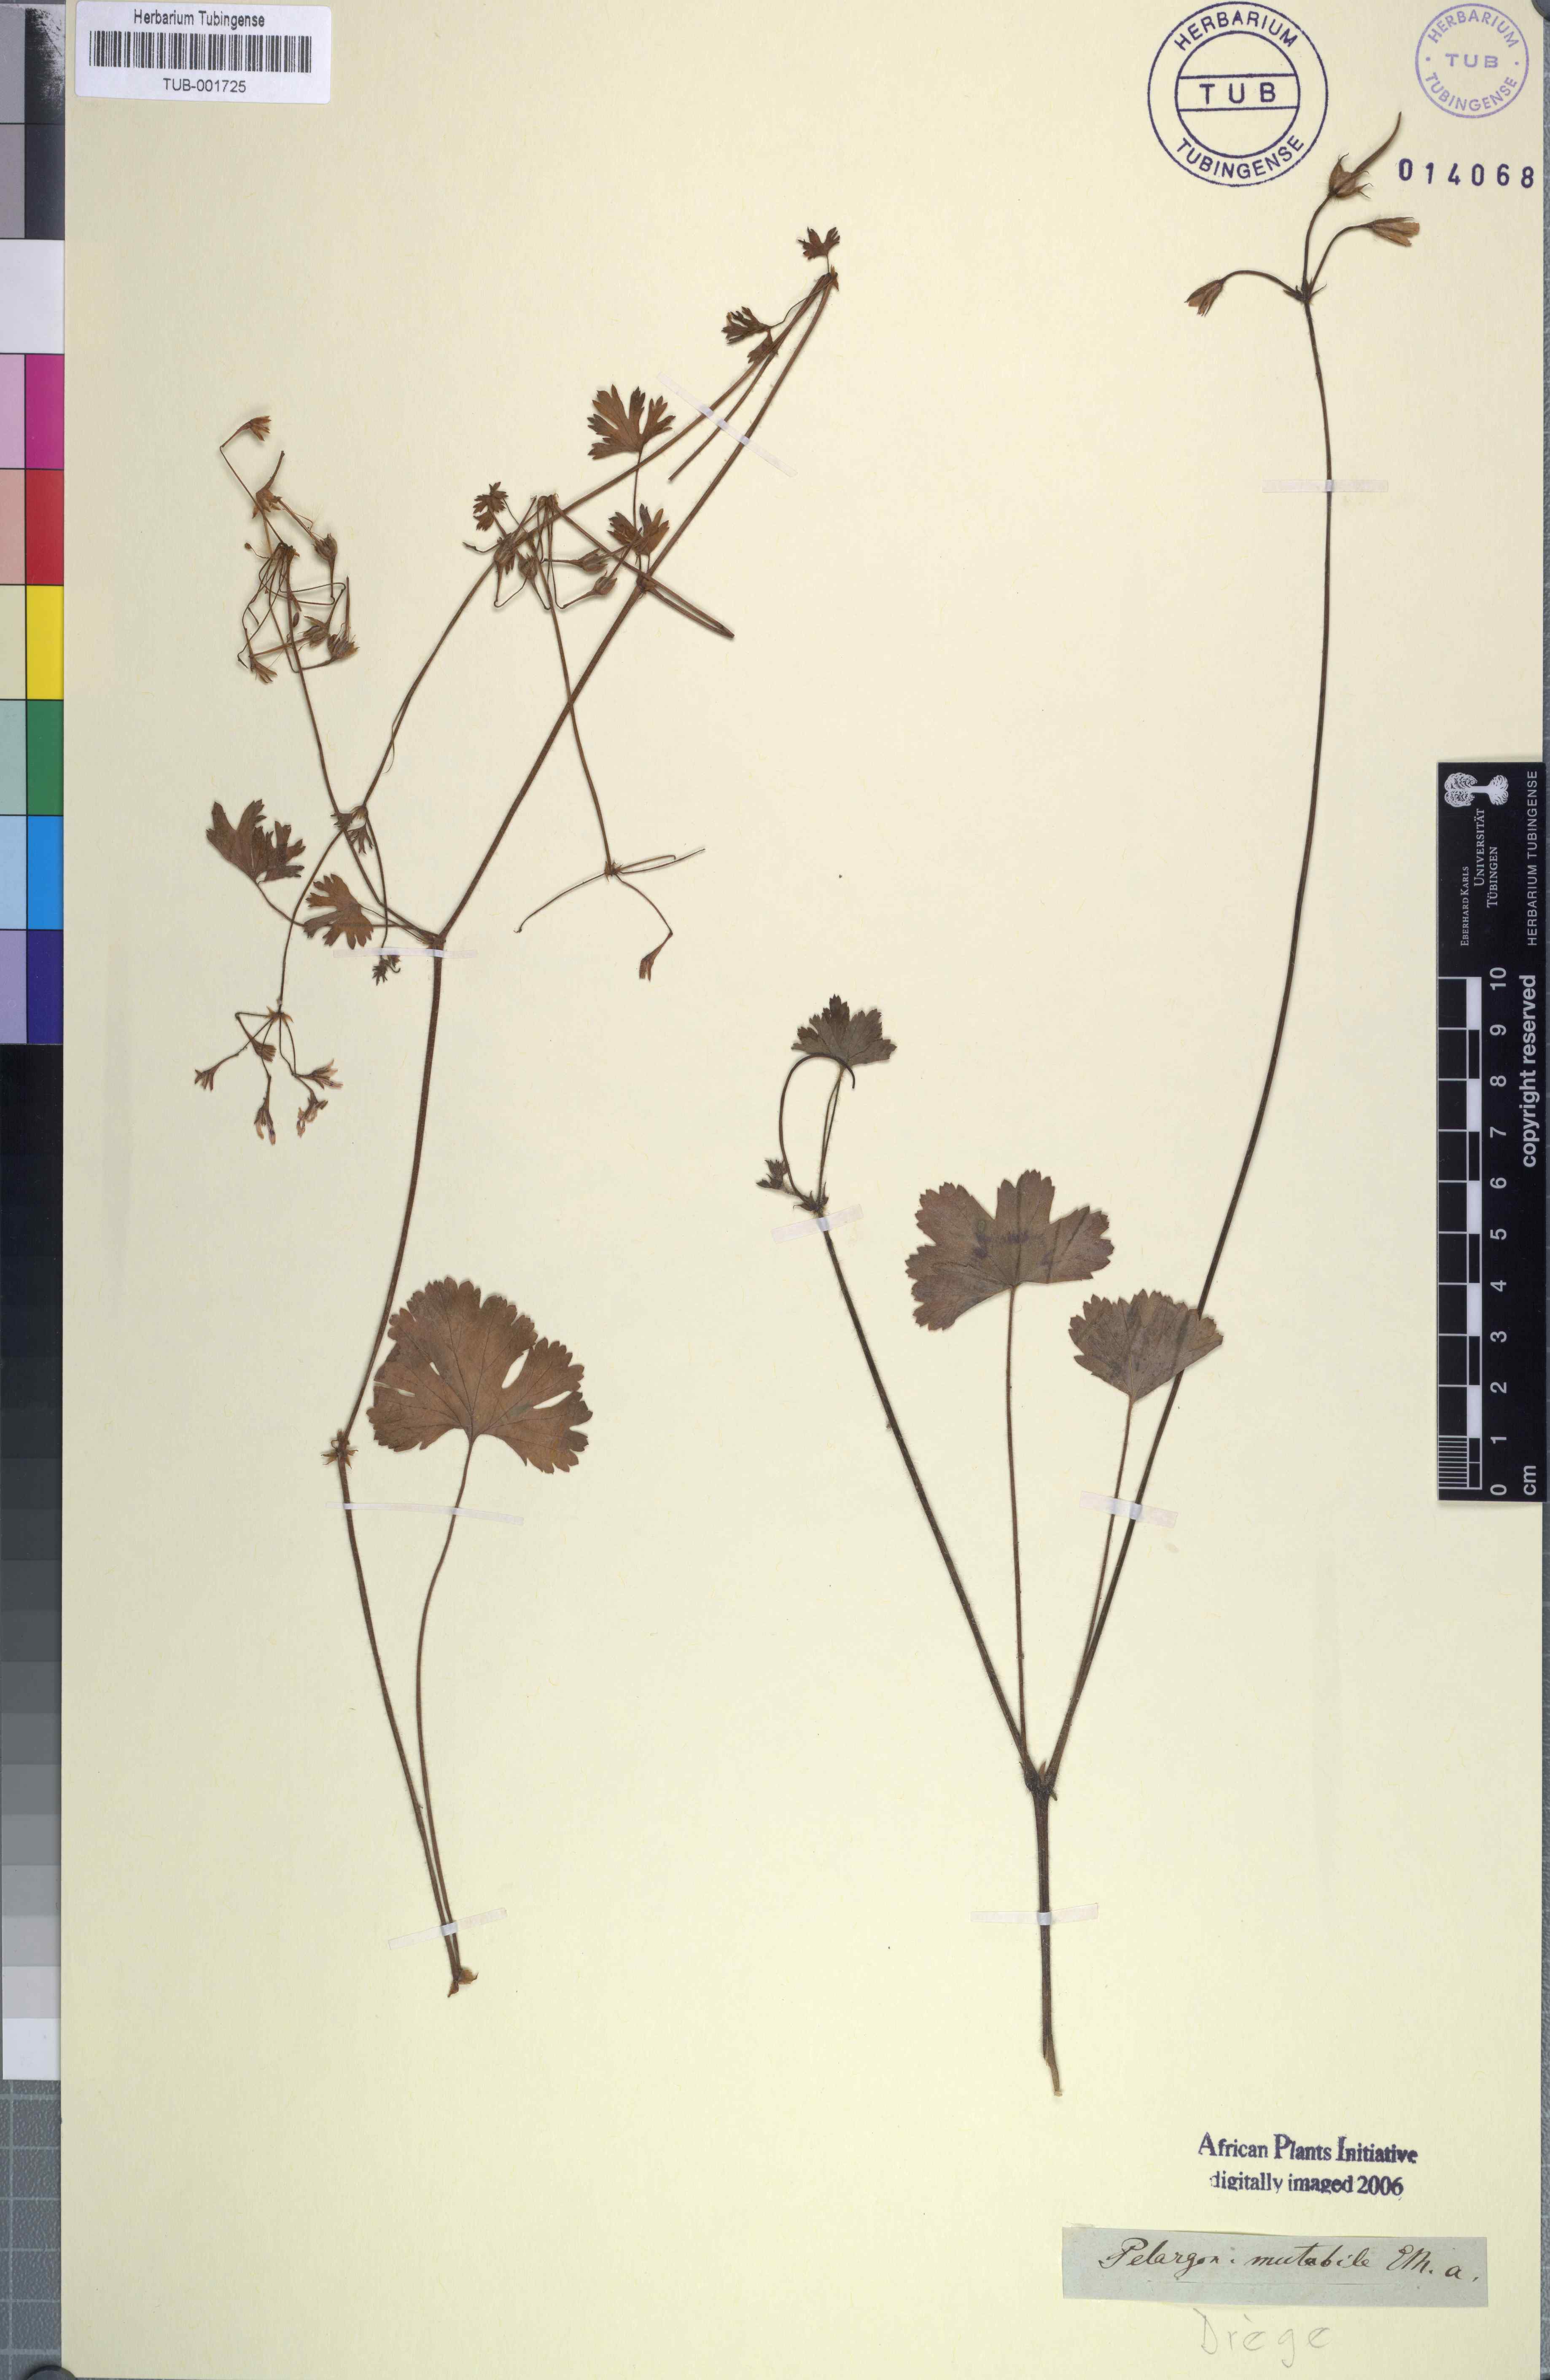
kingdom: Plantae
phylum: Tracheophyta
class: Magnoliopsida
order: Geraniales
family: Geraniaceae
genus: Pelargonium
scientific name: Pelargonium australe
